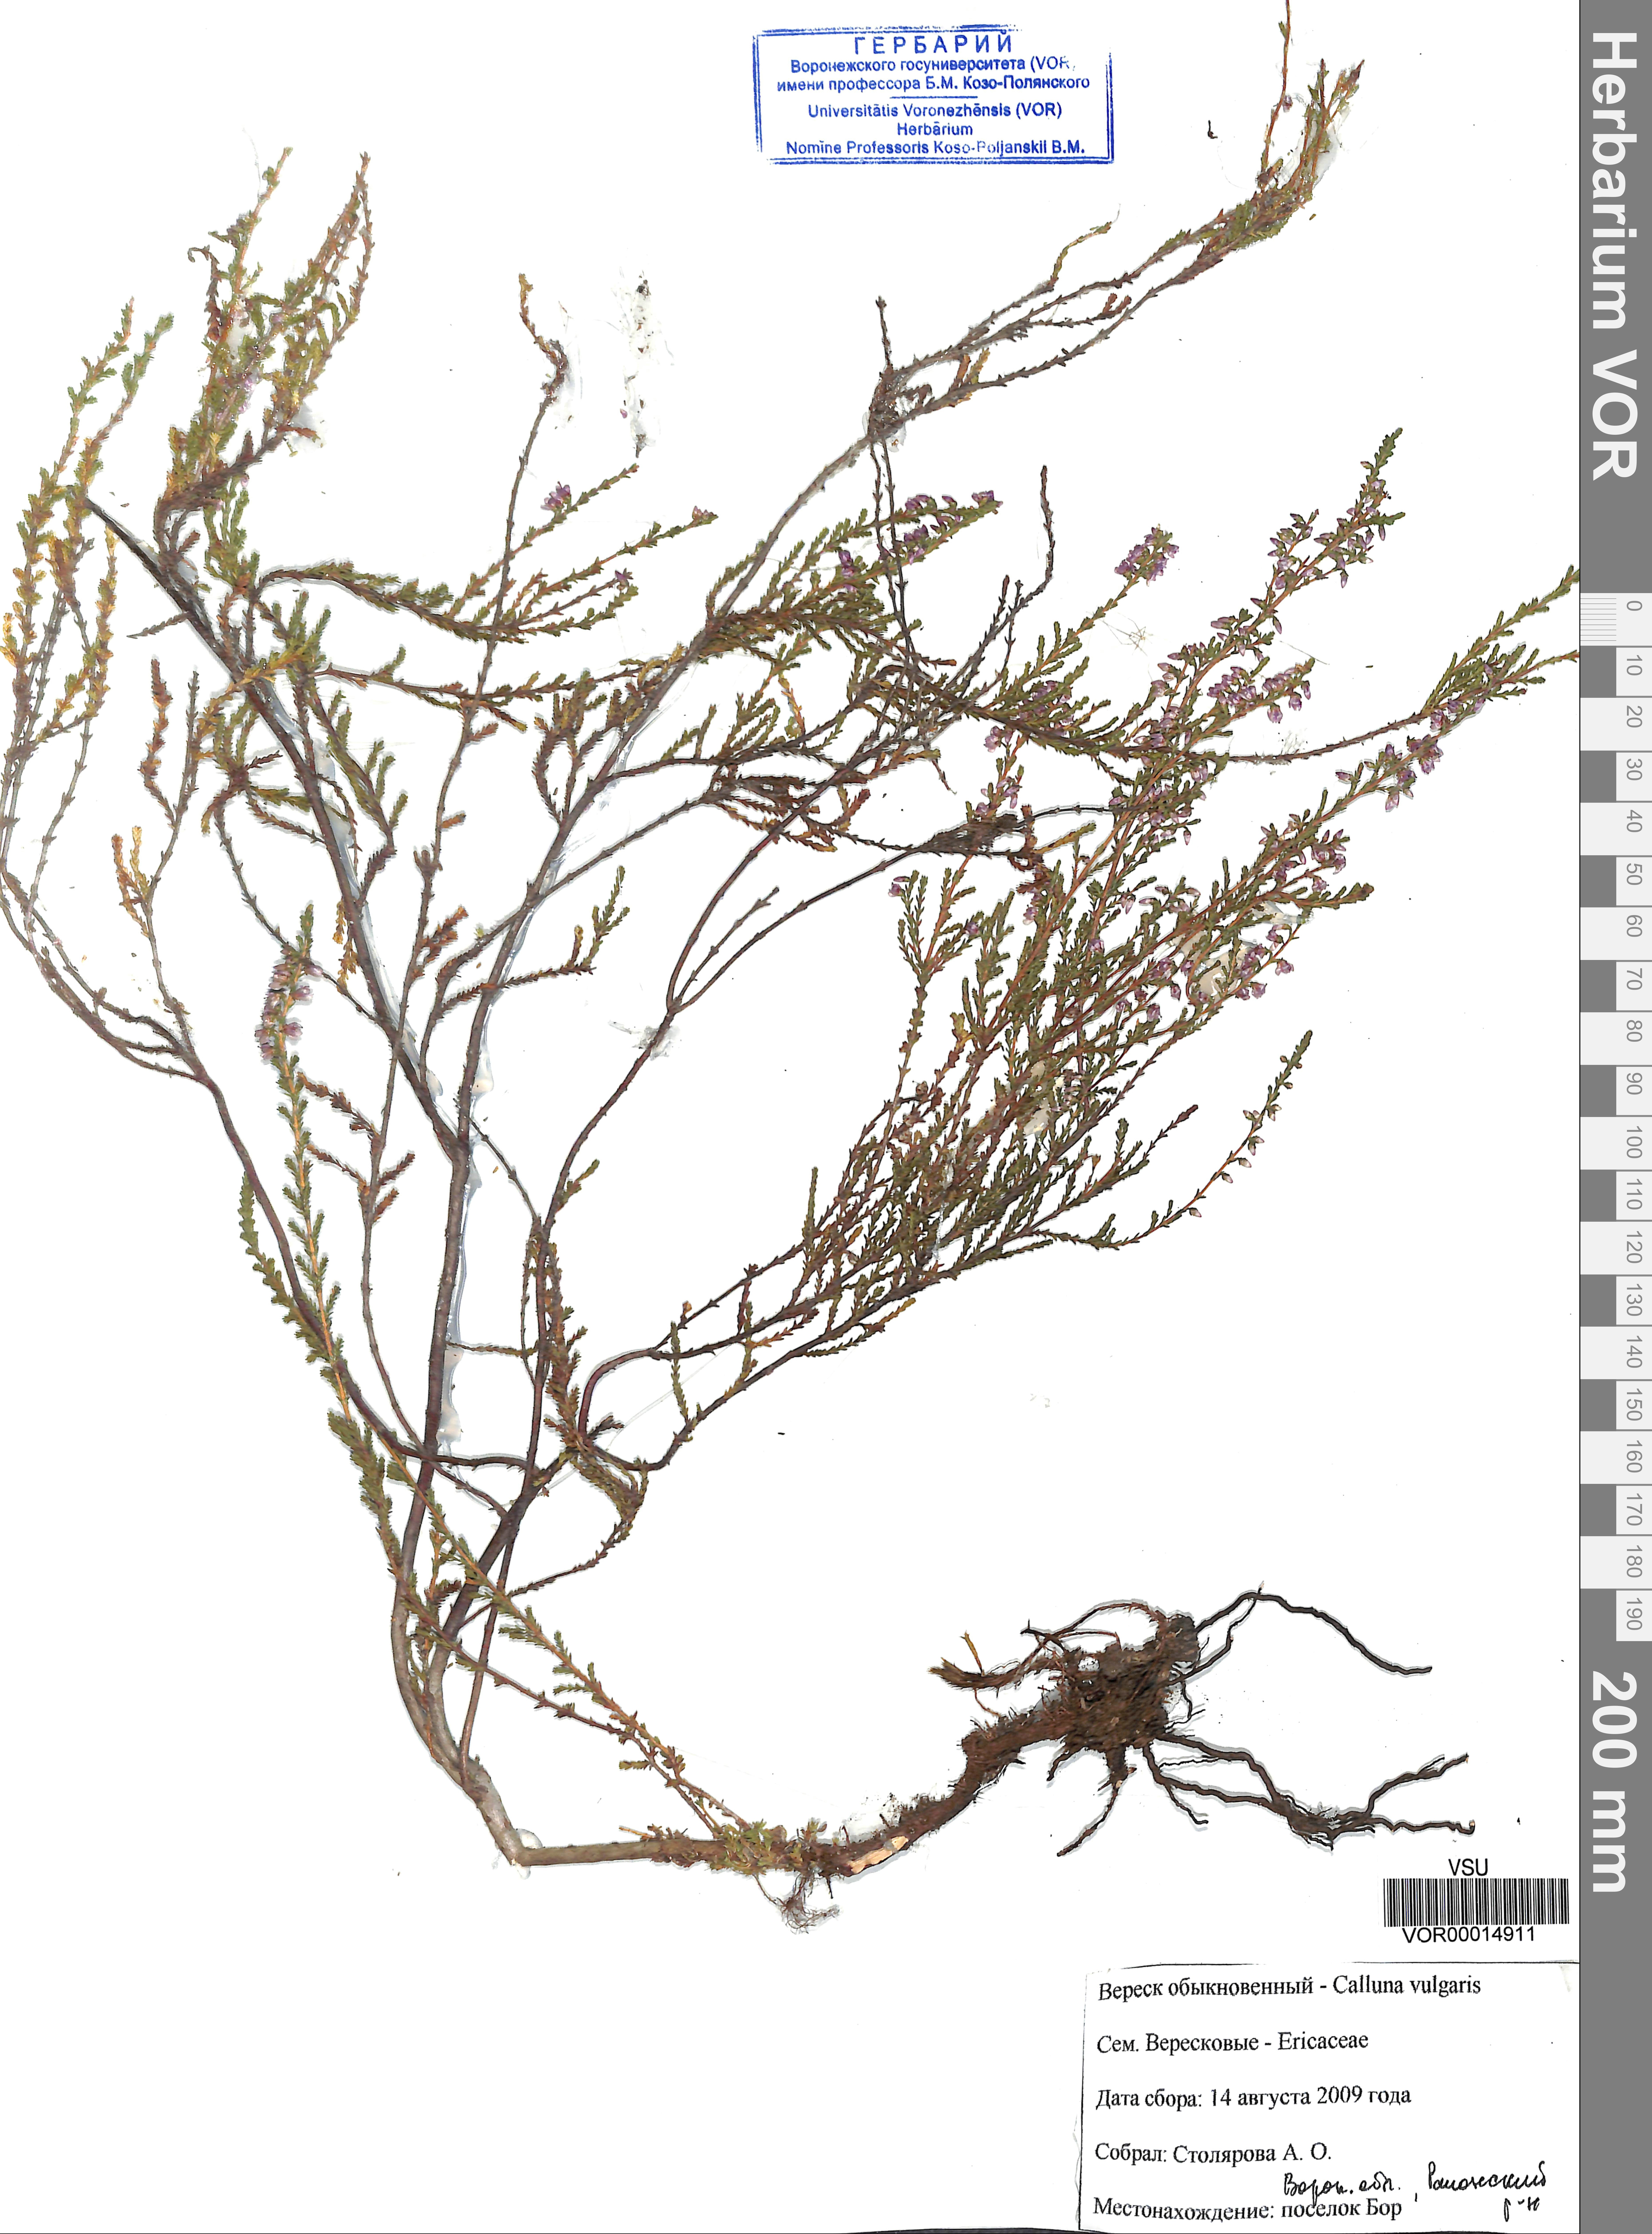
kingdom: Plantae
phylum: Tracheophyta
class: Magnoliopsida
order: Ericales
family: Ericaceae
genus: Calluna
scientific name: Calluna vulgaris
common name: Heather
